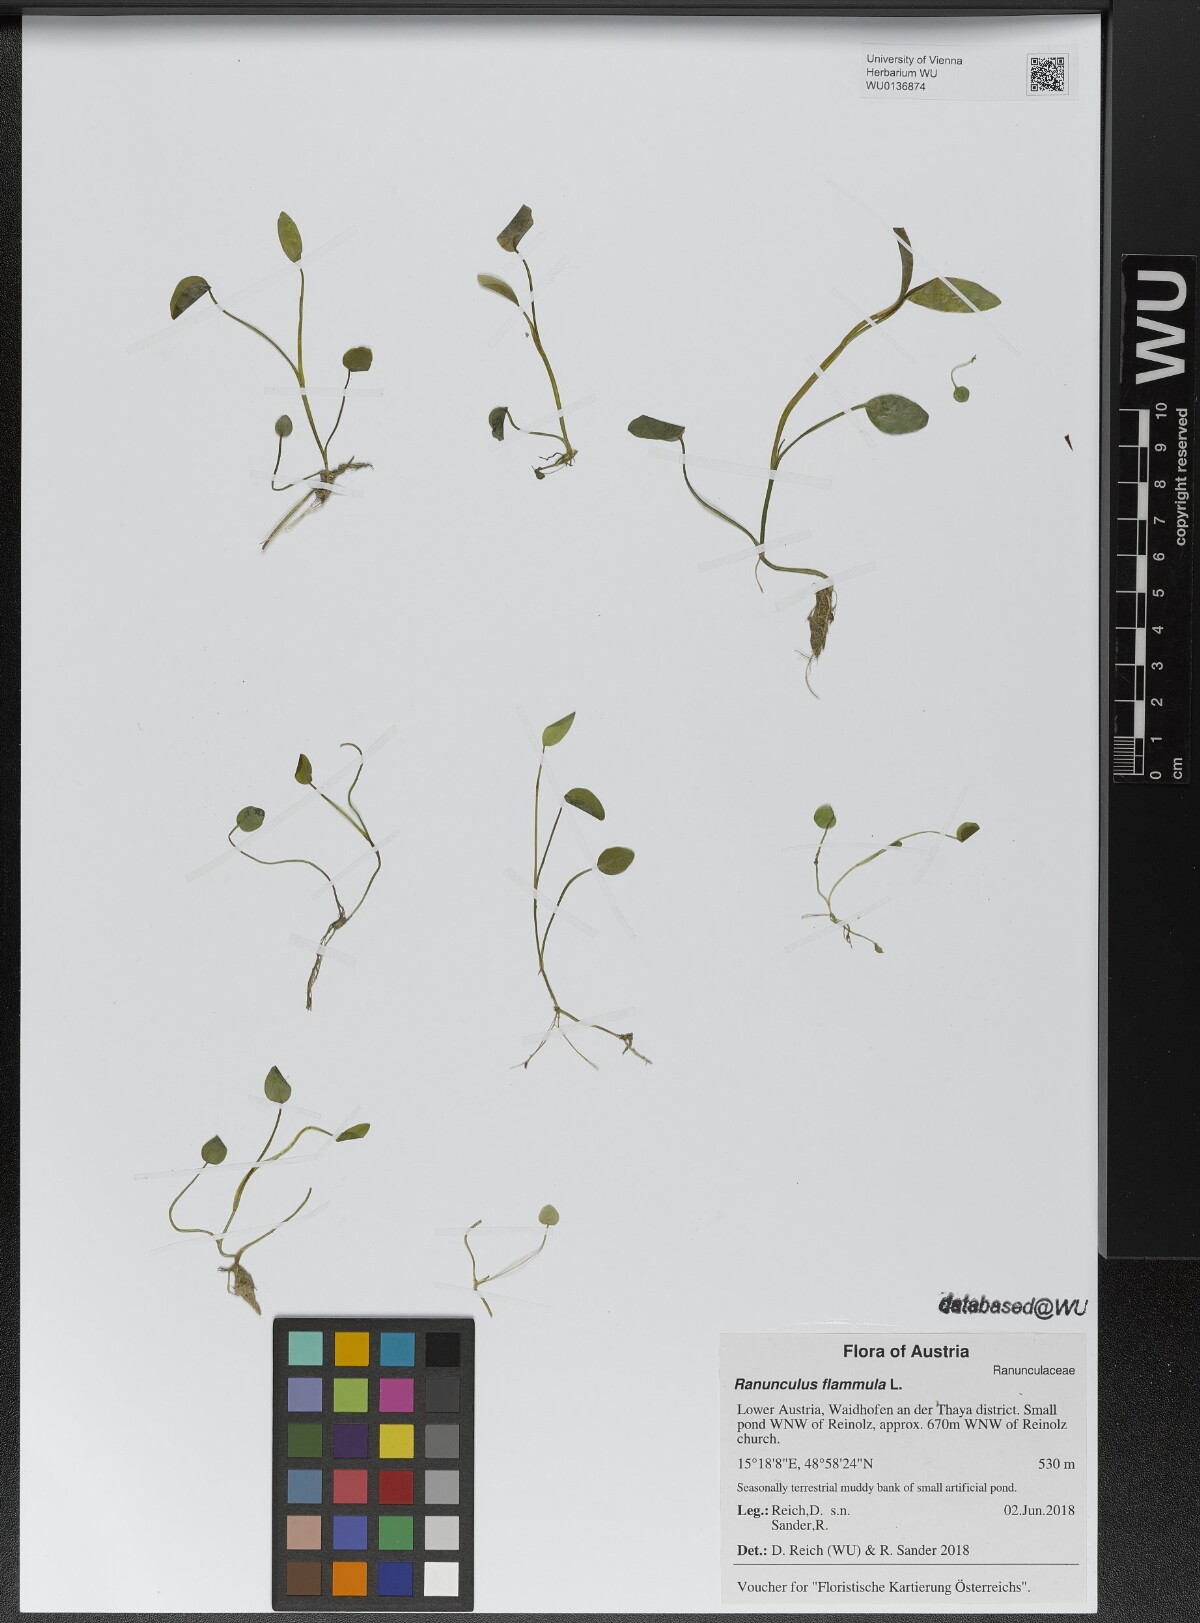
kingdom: Plantae
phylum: Tracheophyta
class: Magnoliopsida
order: Ranunculales
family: Ranunculaceae
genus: Ranunculus
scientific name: Ranunculus flammula
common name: Lesser spearwort
